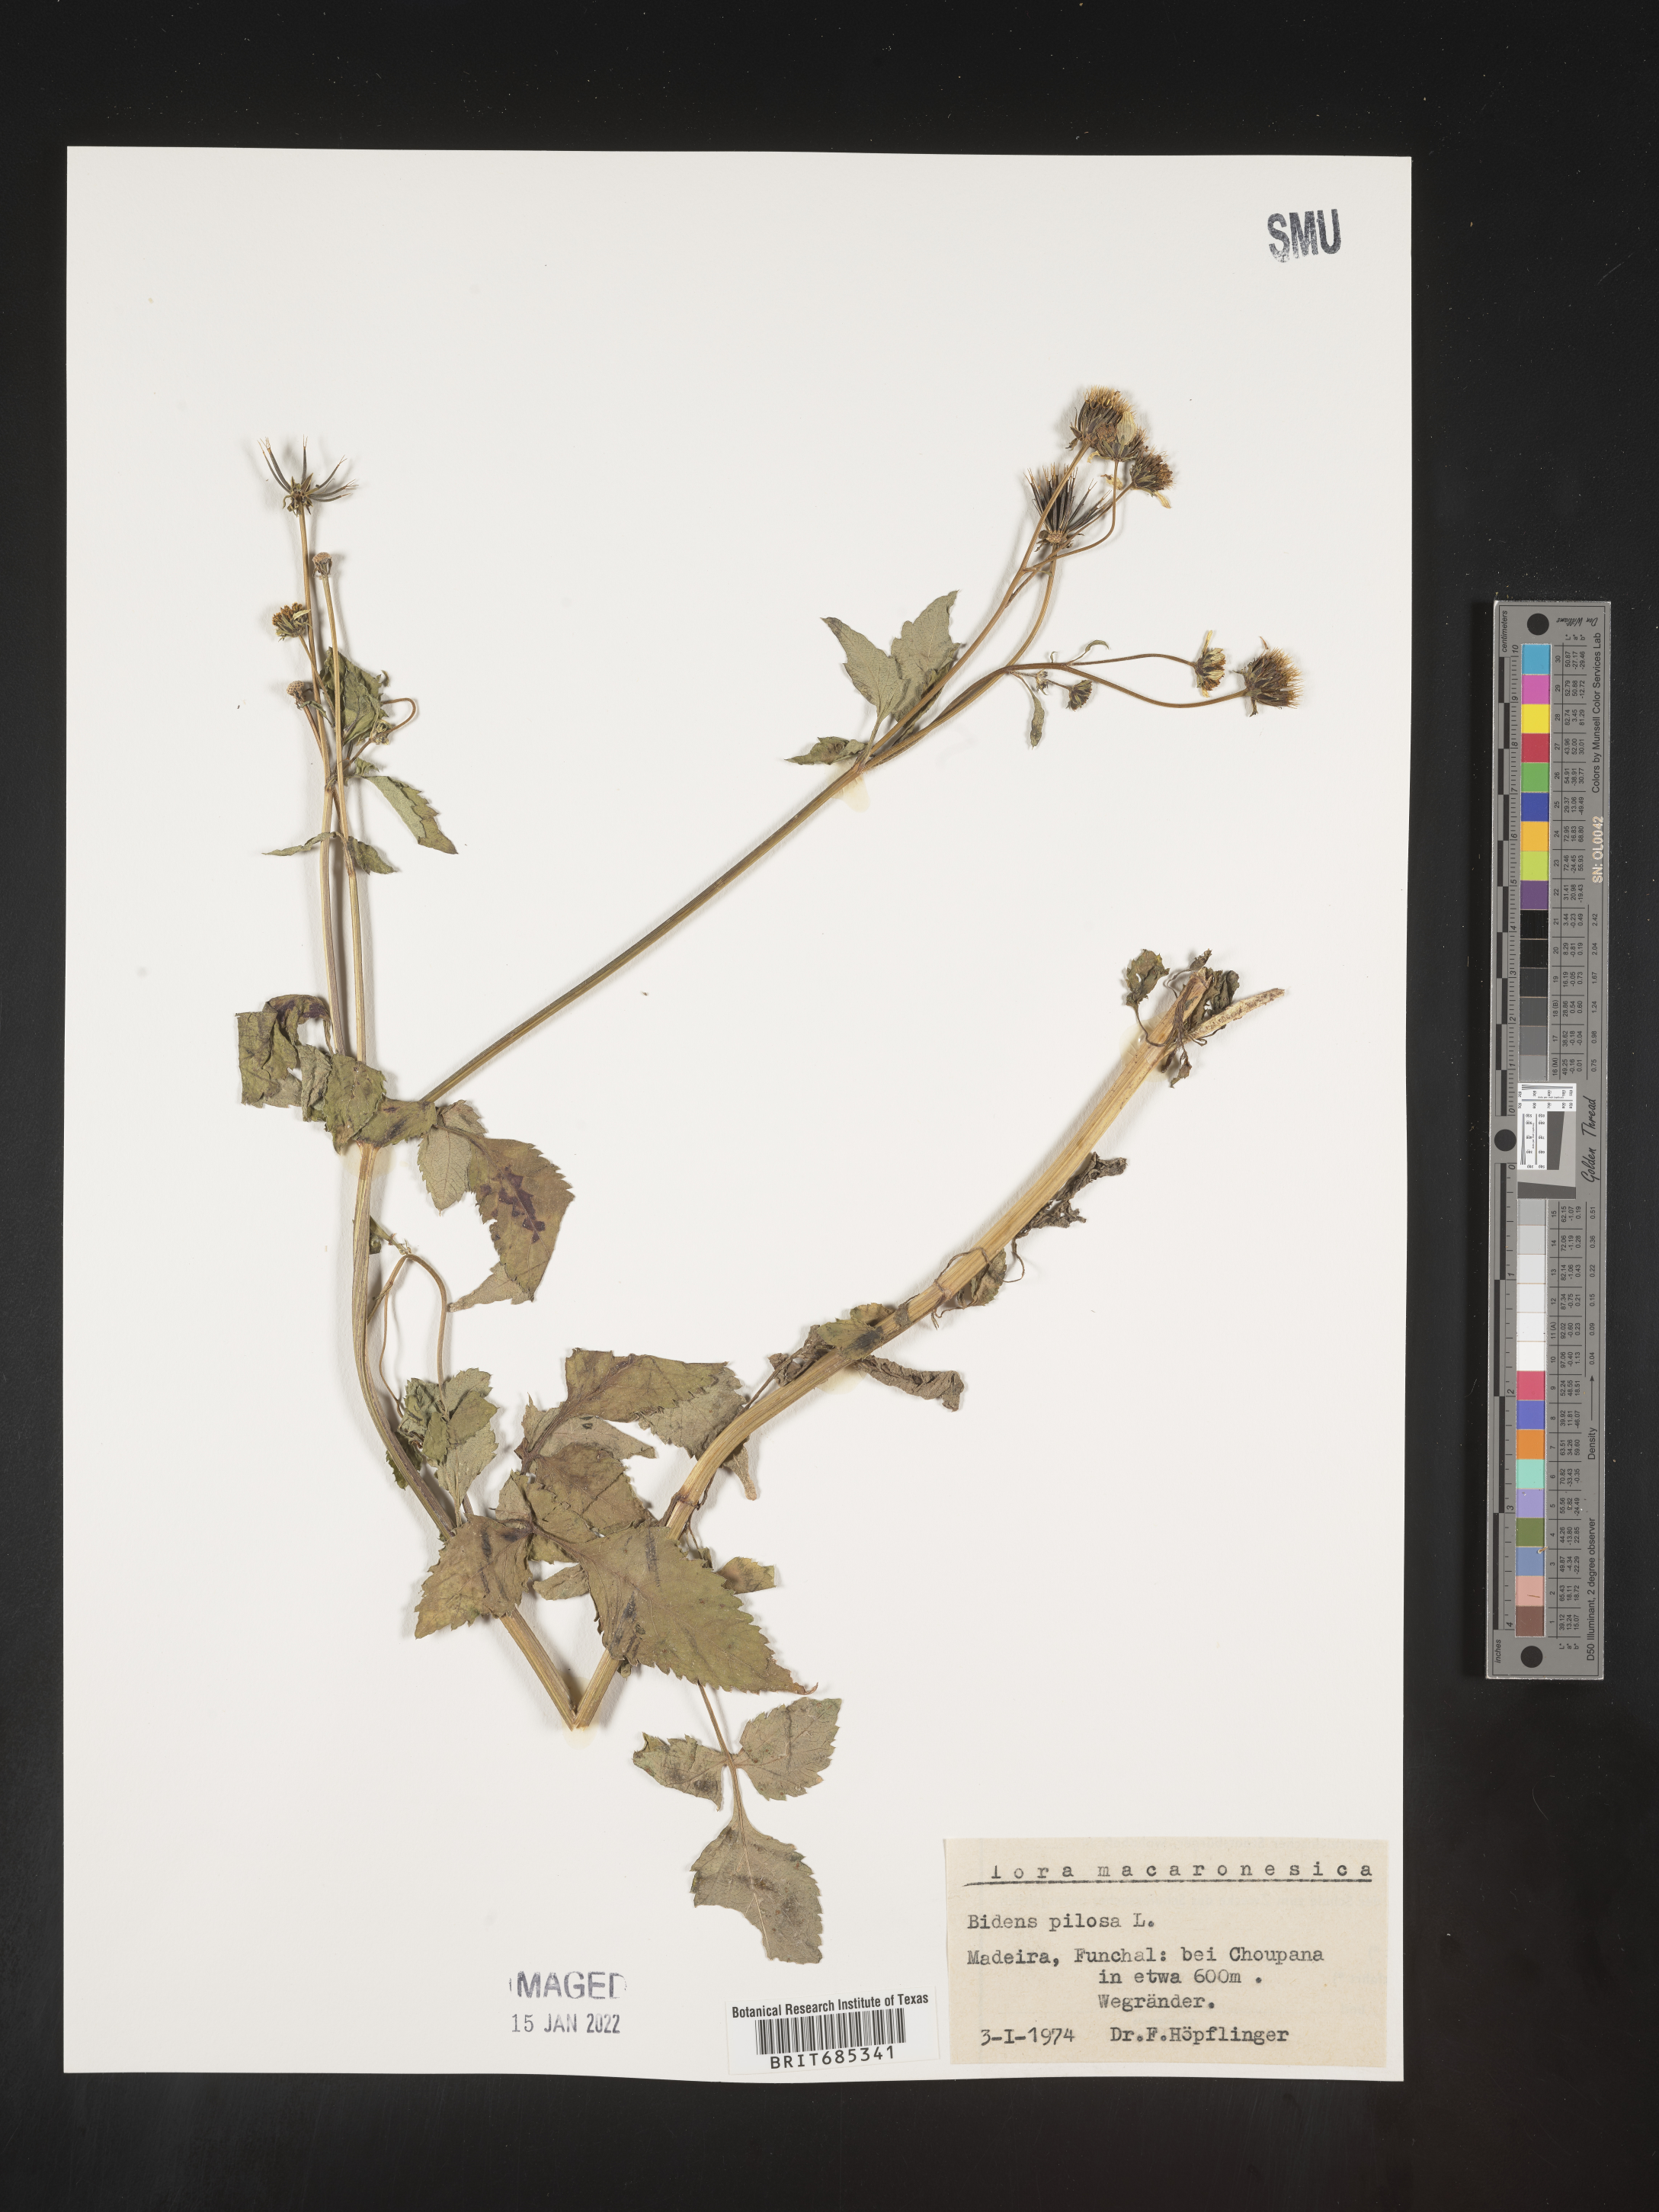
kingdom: Plantae
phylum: Tracheophyta
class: Magnoliopsida
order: Asterales
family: Asteraceae
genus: Bidens
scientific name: Bidens
